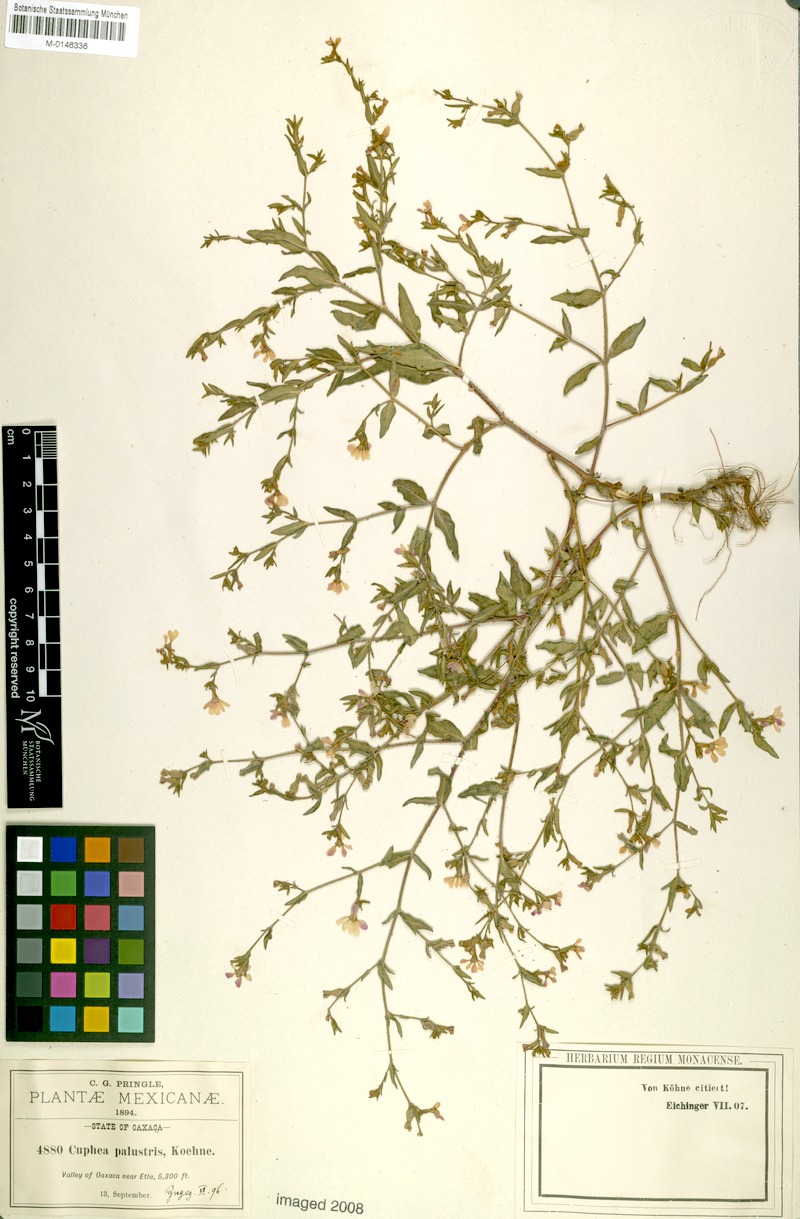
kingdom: Plantae
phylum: Tracheophyta
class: Magnoliopsida
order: Myrtales
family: Lythraceae
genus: Cuphea
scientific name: Cuphea palustris
